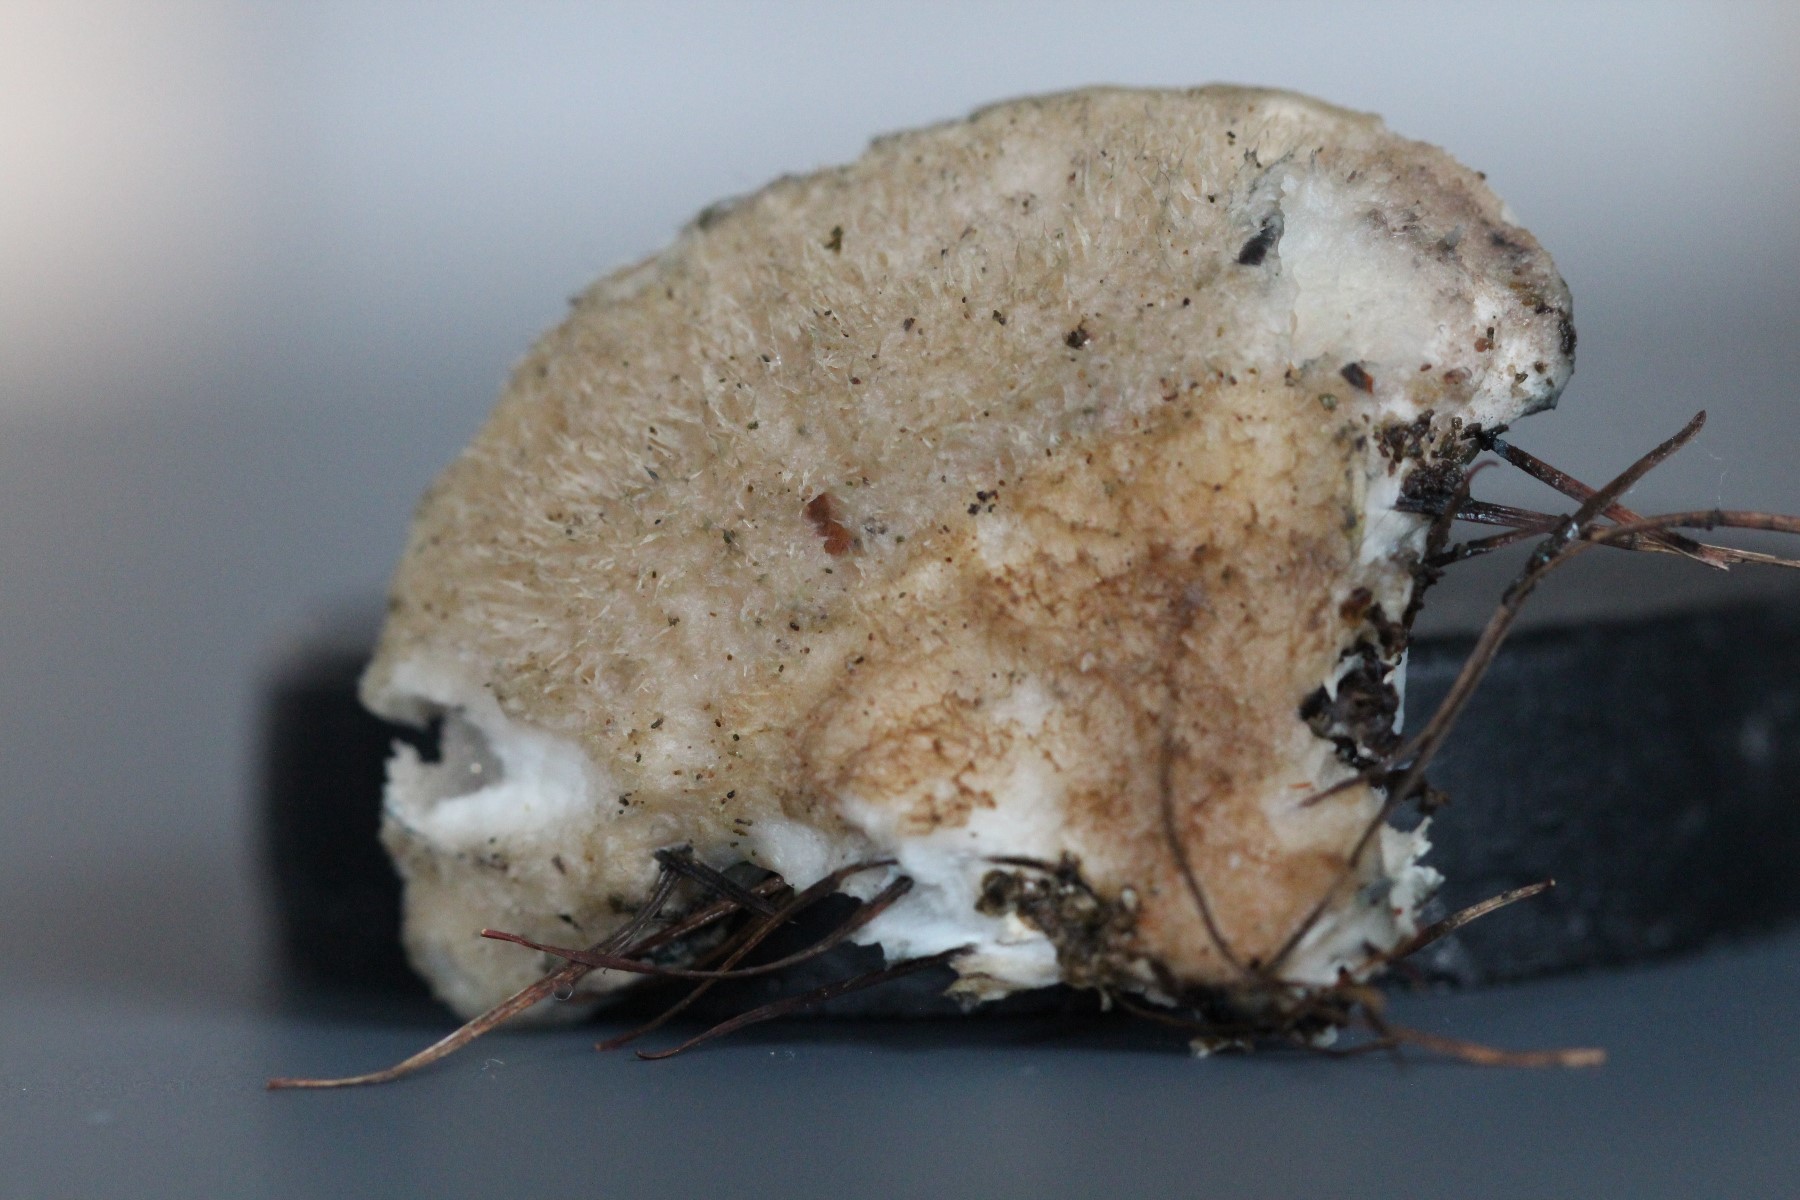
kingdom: Fungi
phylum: Basidiomycota
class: Agaricomycetes
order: Polyporales
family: Polyporaceae
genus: Cyanosporus
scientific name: Cyanosporus
